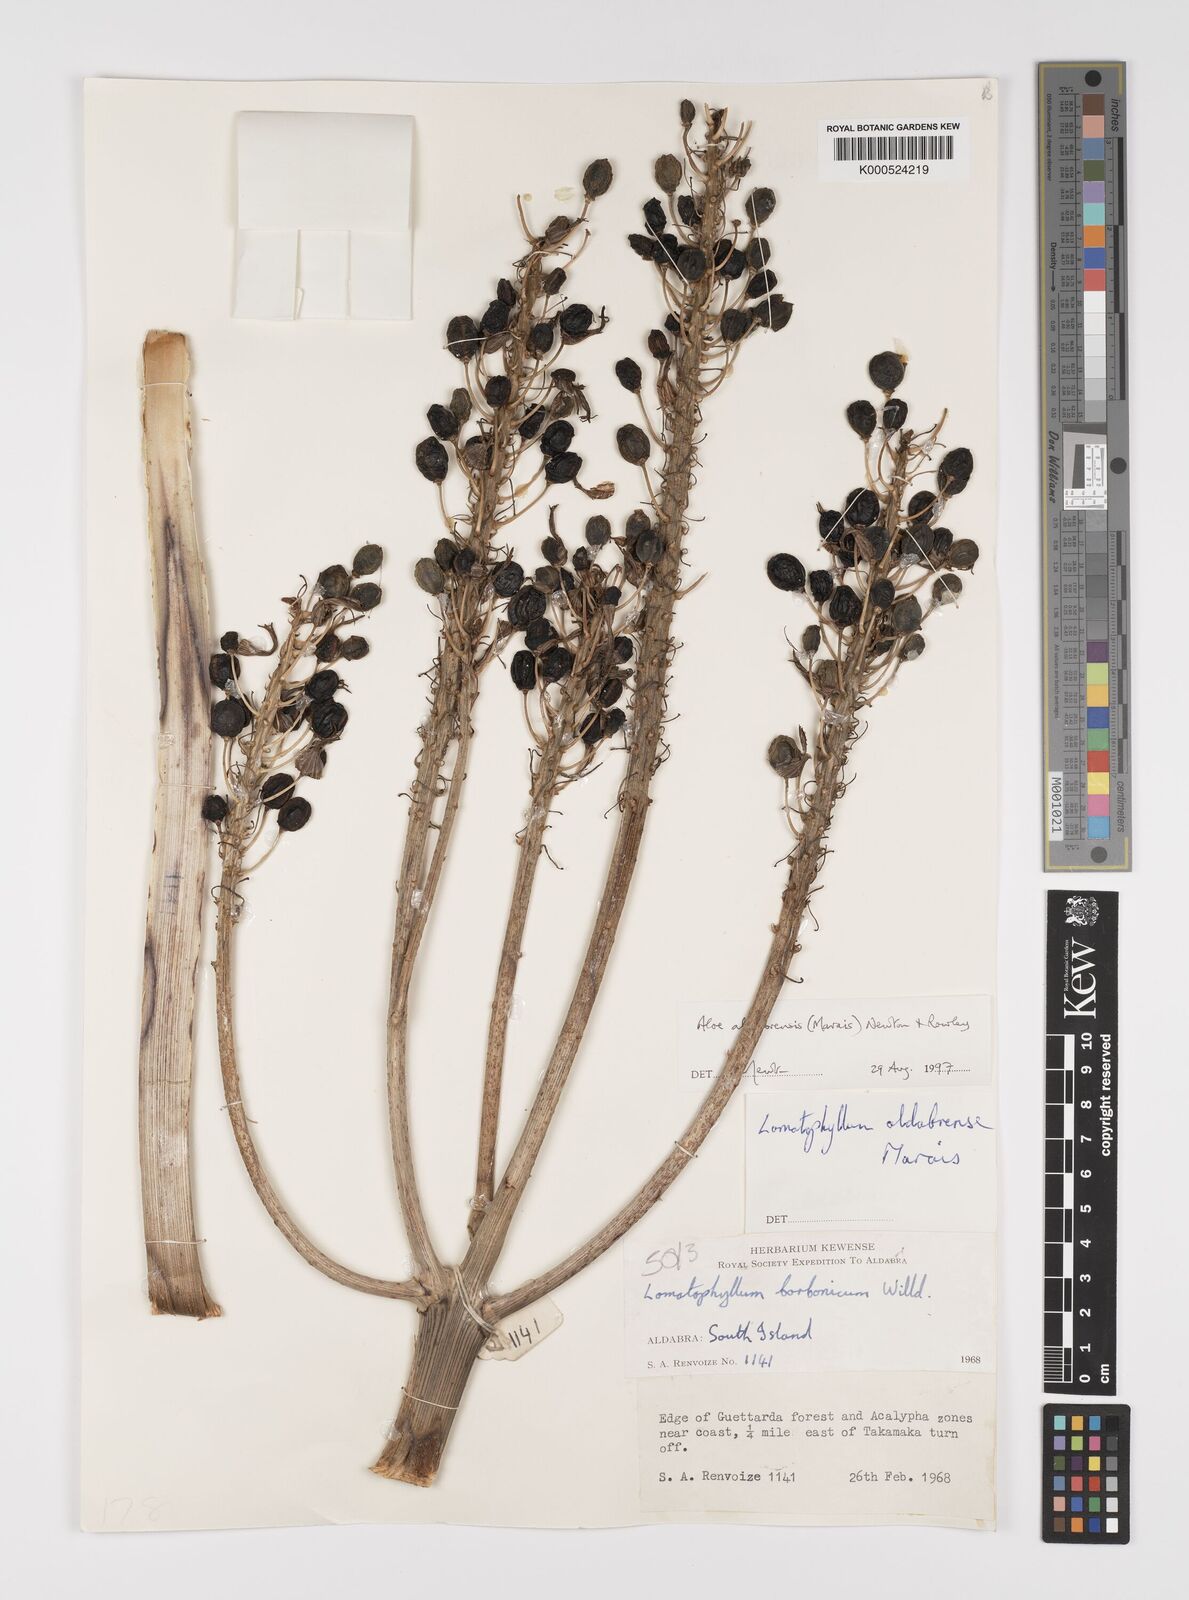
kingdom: Plantae
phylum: Tracheophyta
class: Liliopsida
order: Asparagales
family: Asphodelaceae
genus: Aloe
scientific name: Aloe aldabrensis
